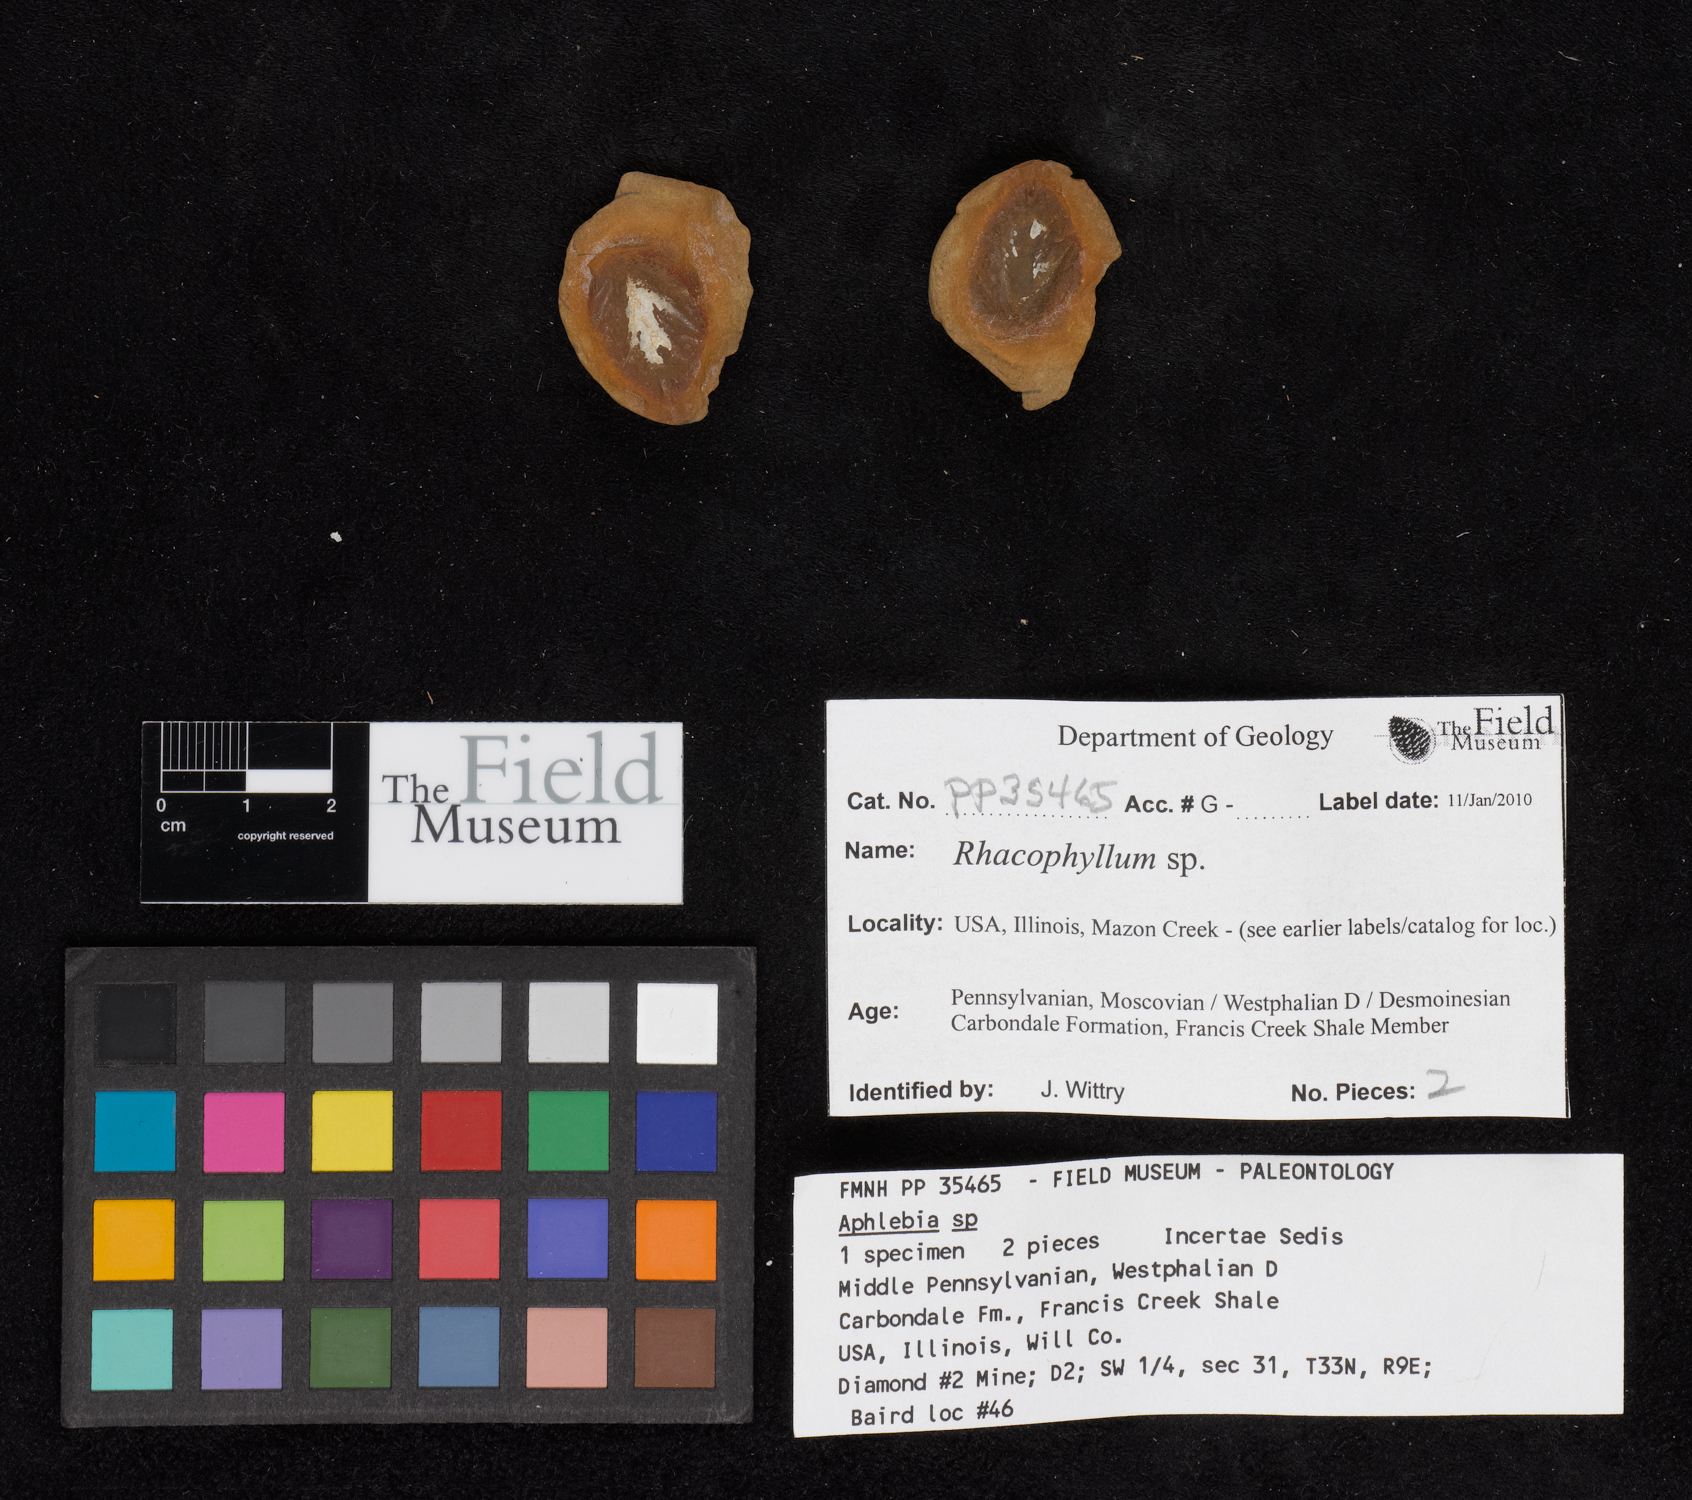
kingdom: Plantae
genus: Rhacophyllum
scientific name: Rhacophyllum
